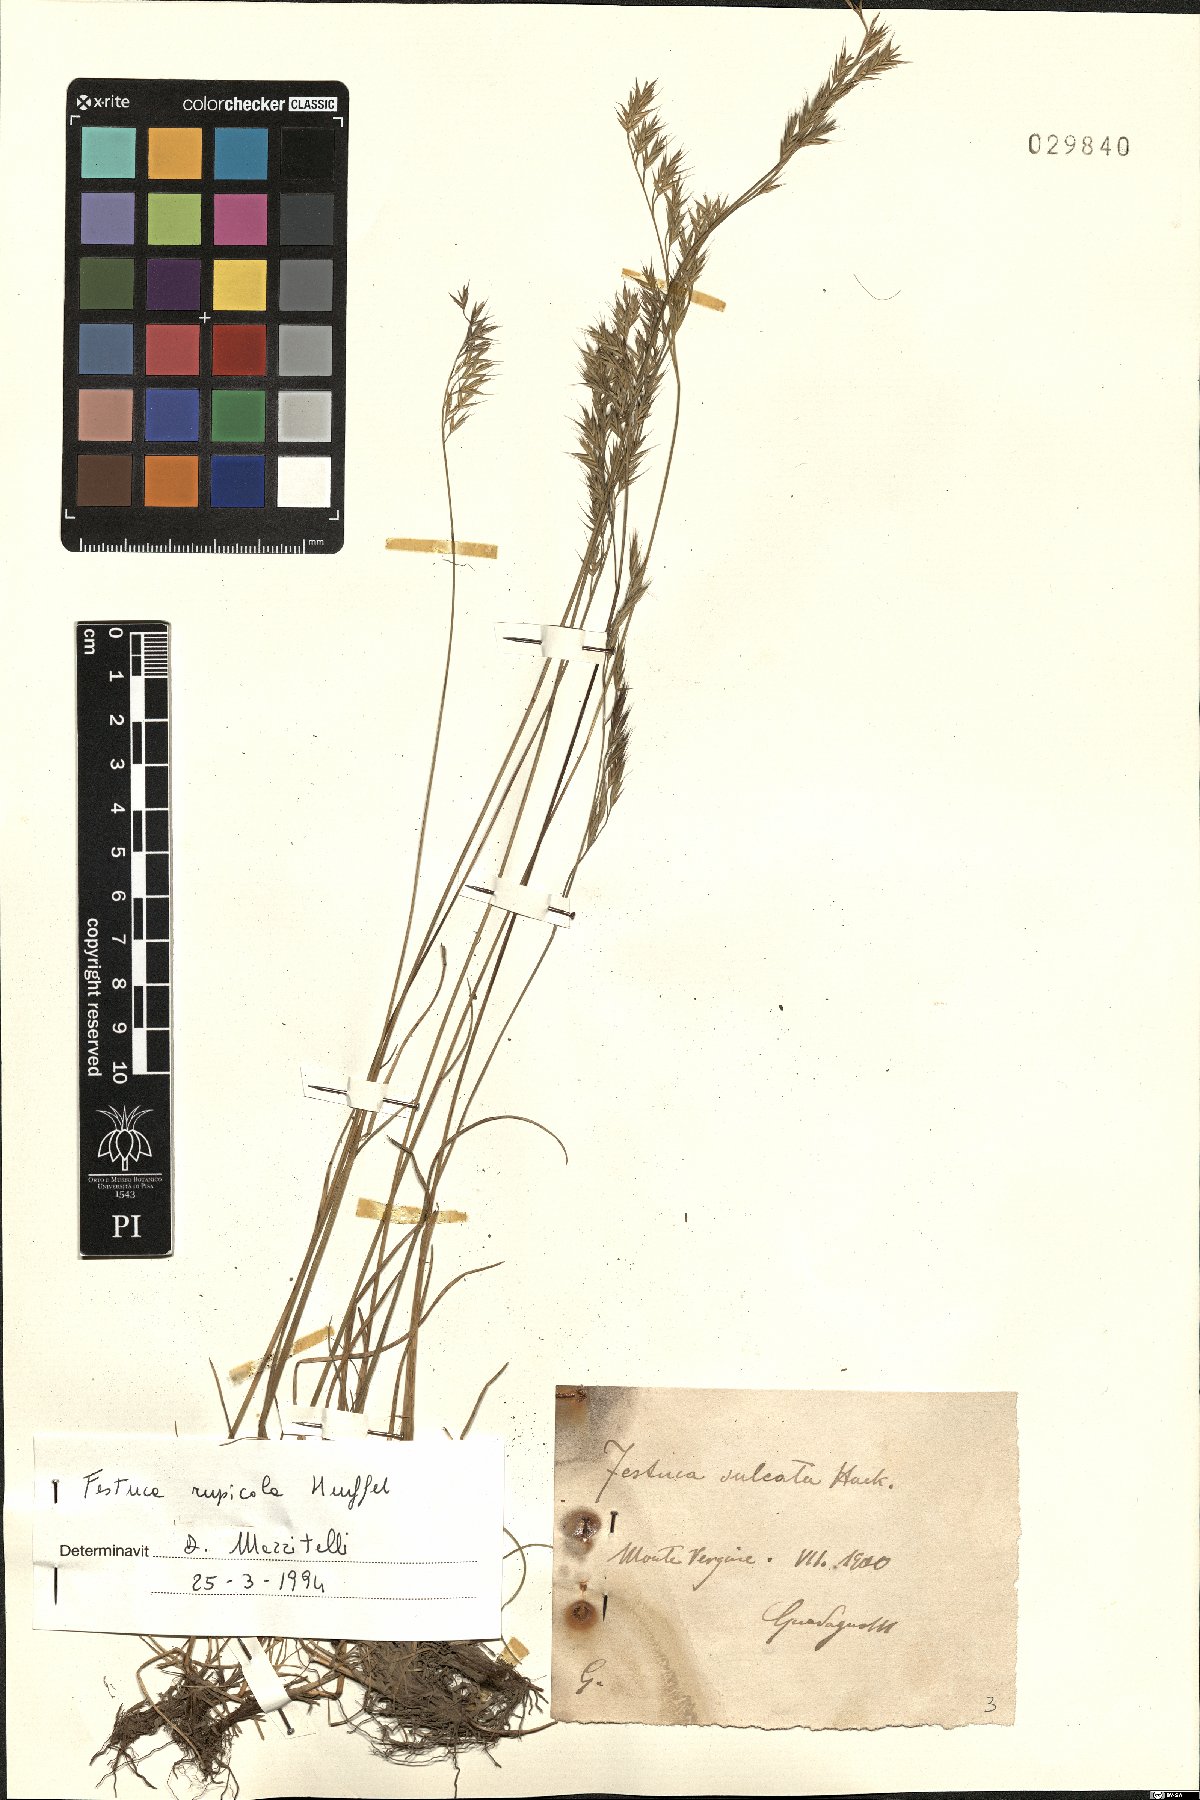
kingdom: Plantae
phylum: Tracheophyta
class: Liliopsida
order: Poales
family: Poaceae
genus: Festuca
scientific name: Festuca rupicola
